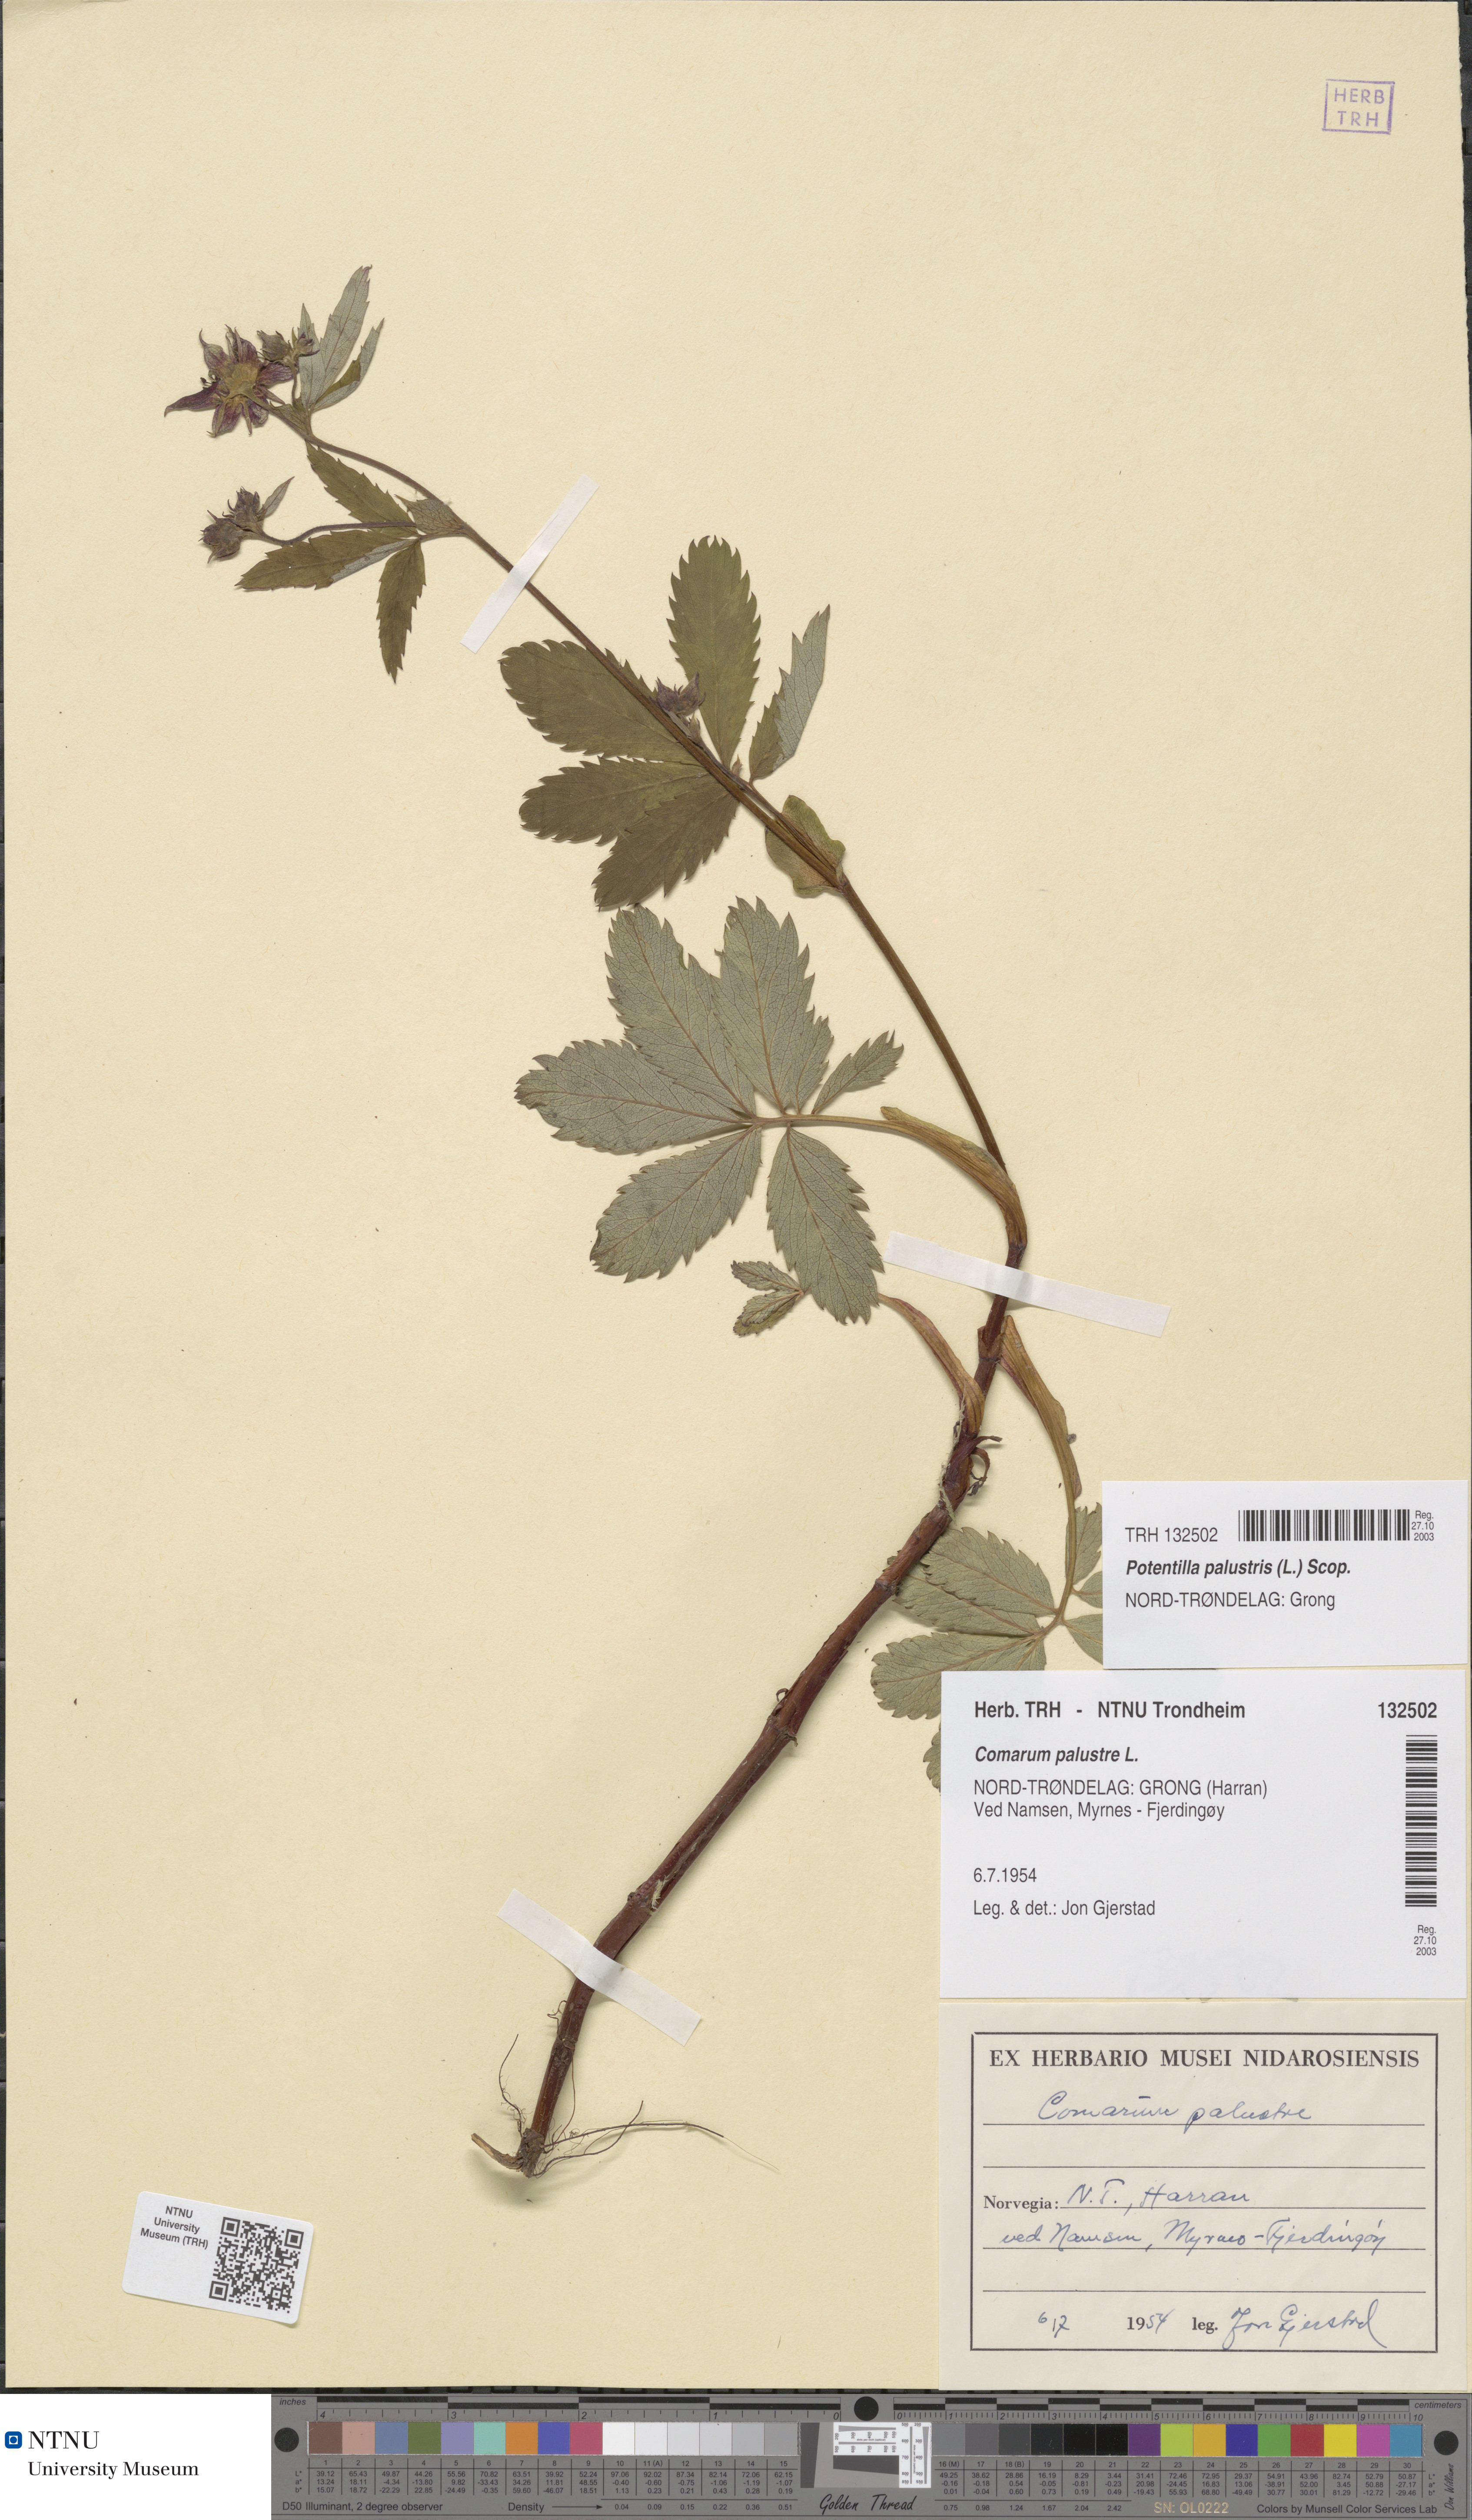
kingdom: Plantae
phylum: Tracheophyta
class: Magnoliopsida
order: Rosales
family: Rosaceae
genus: Comarum
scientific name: Comarum palustre
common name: Marsh cinquefoil
